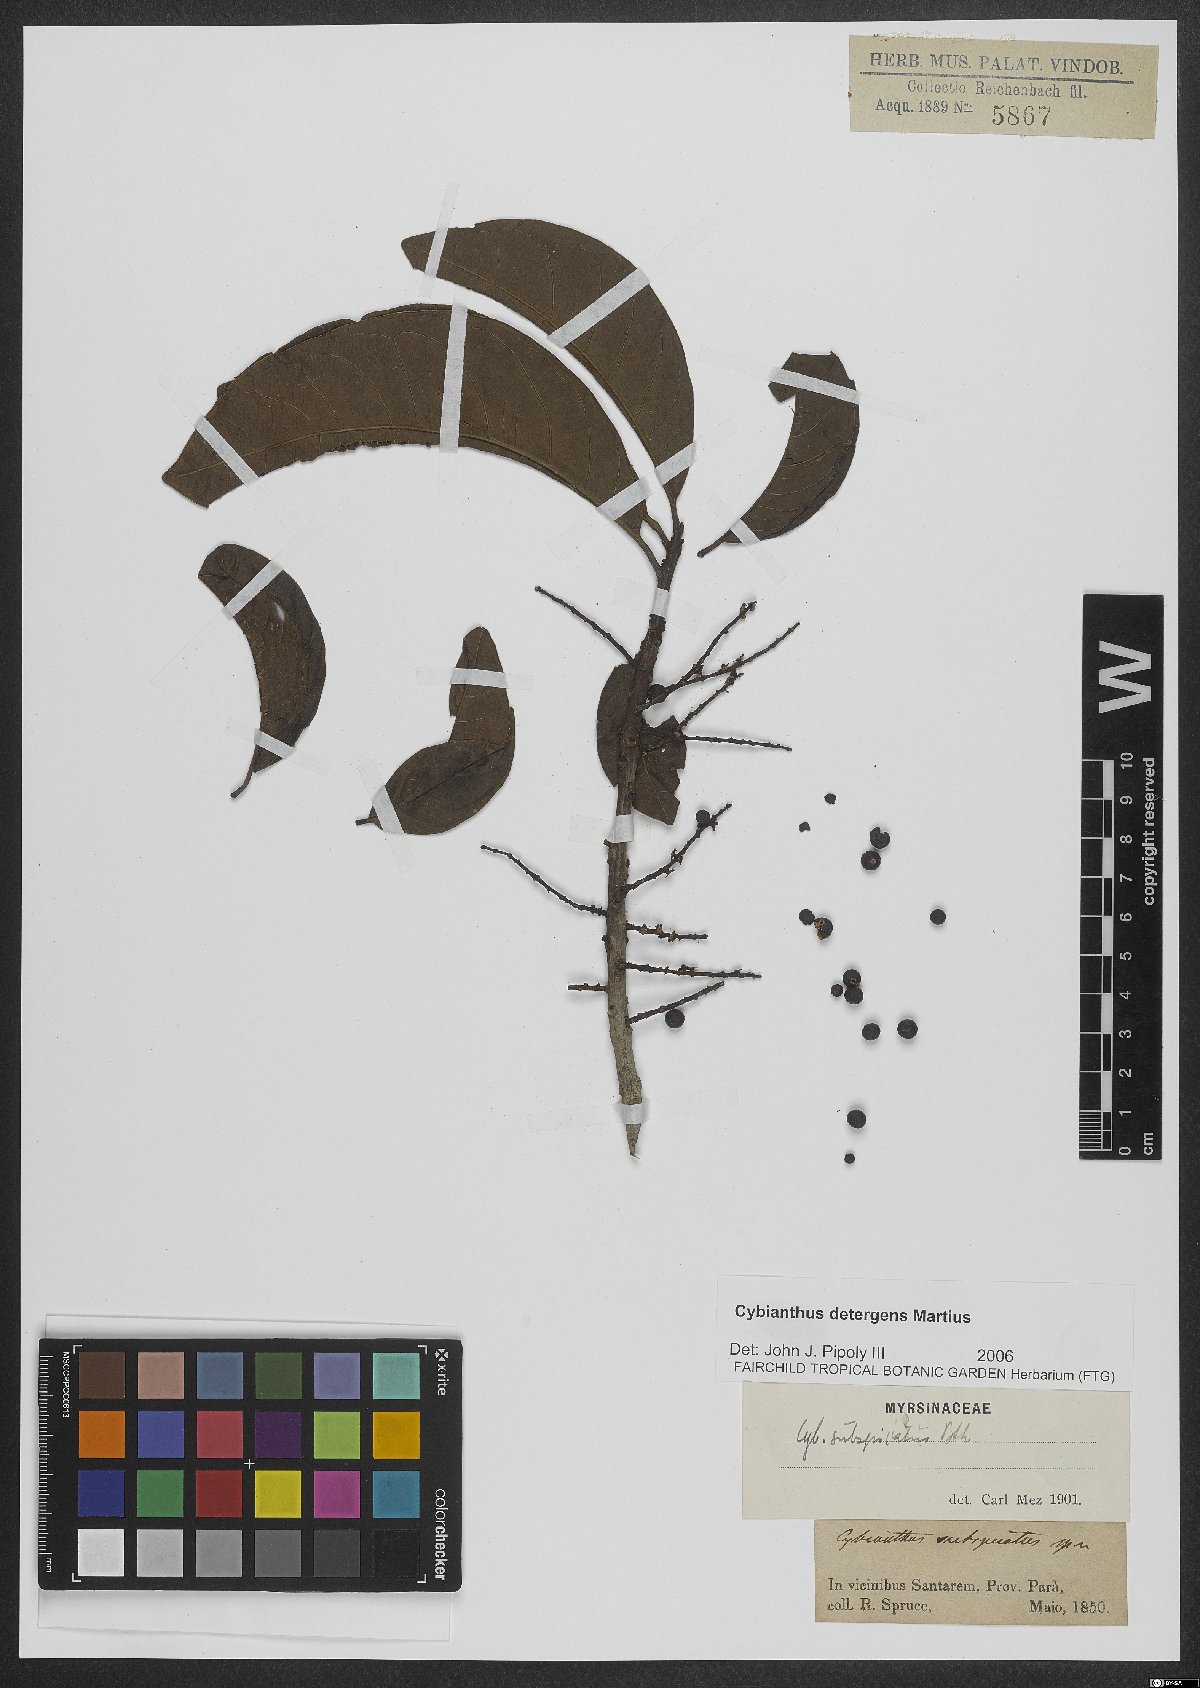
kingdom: Plantae
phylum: Tracheophyta
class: Magnoliopsida
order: Ericales
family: Primulaceae
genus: Cybianthus
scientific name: Cybianthus detergens
